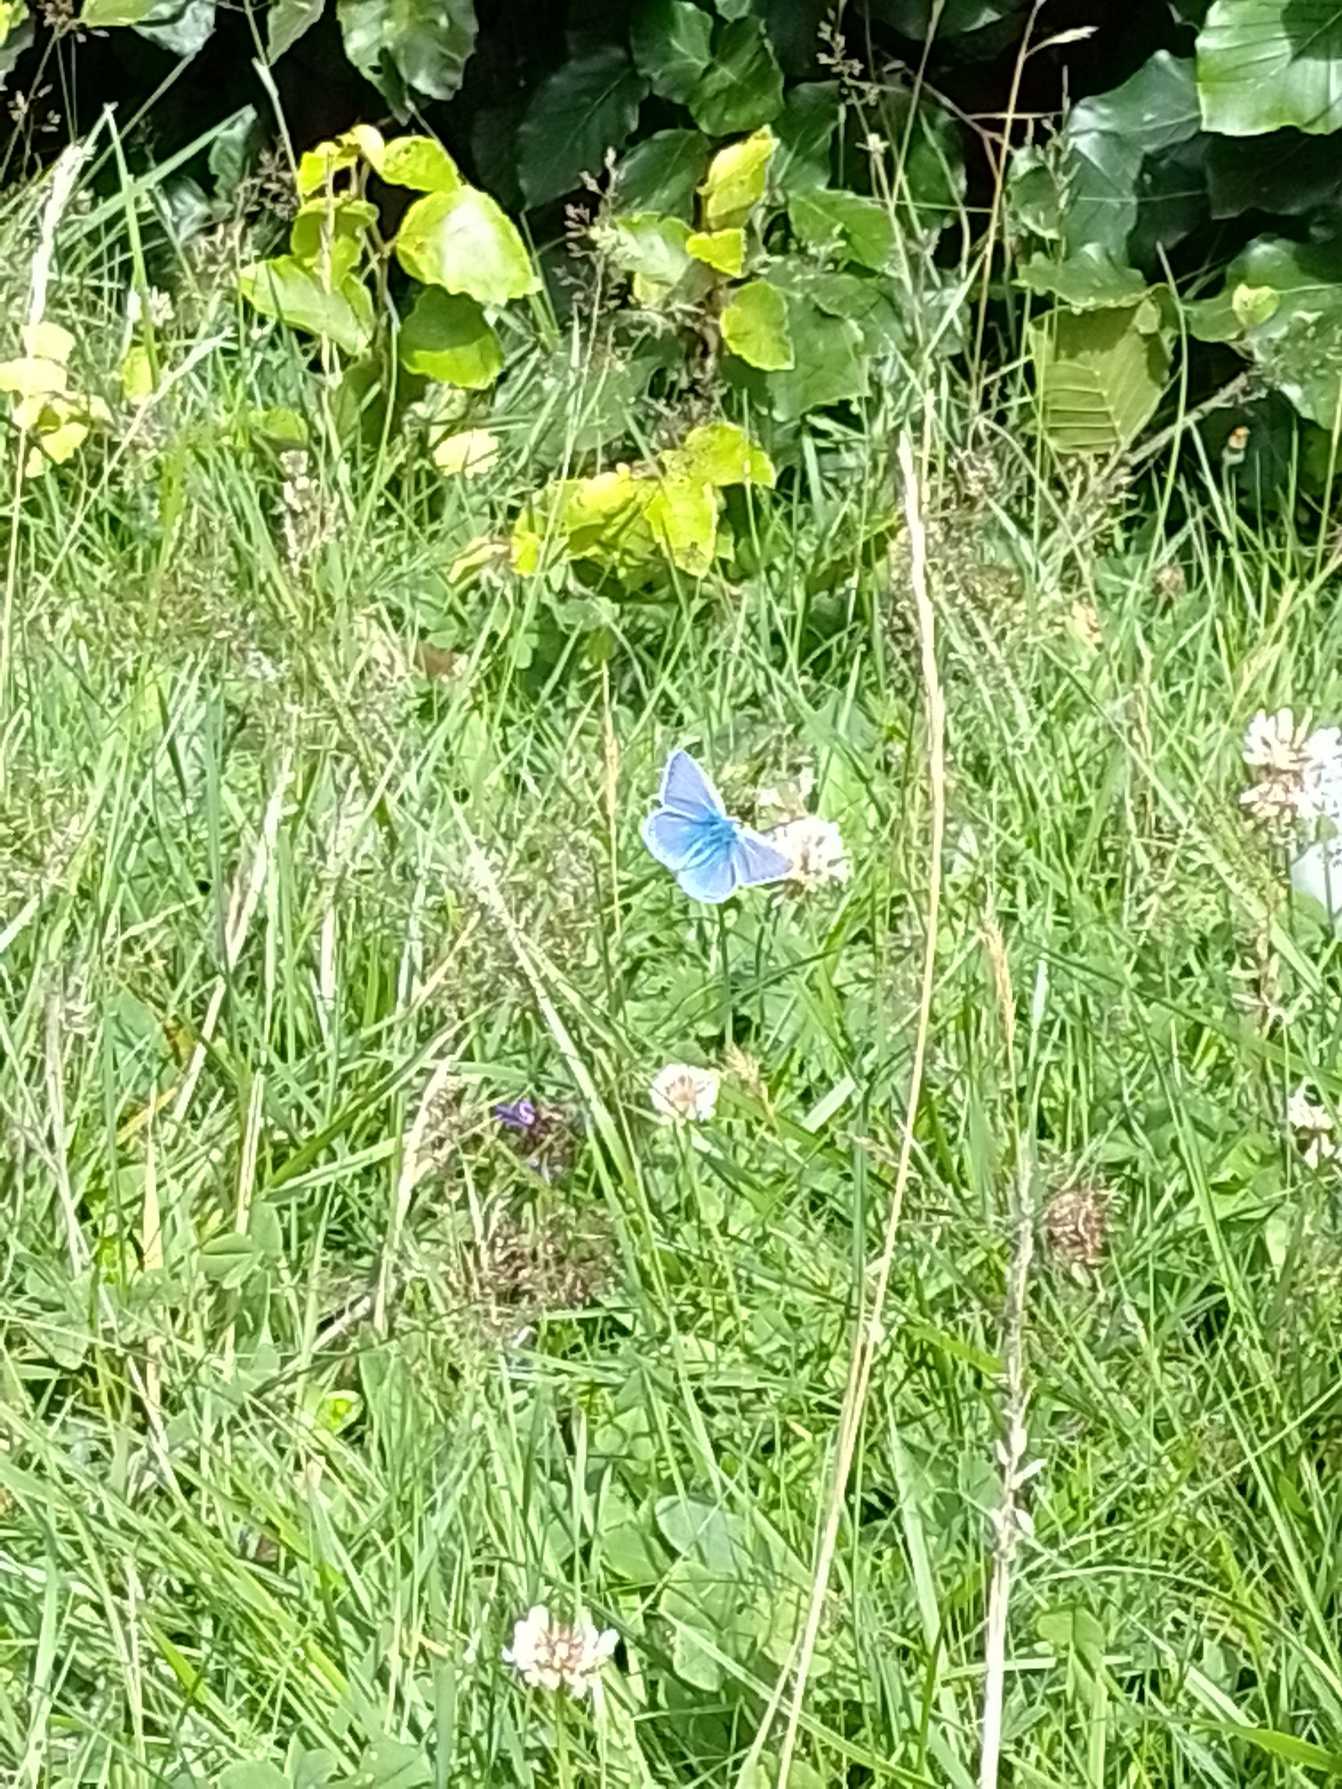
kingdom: Animalia
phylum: Arthropoda
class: Insecta
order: Lepidoptera
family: Lycaenidae
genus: Polyommatus
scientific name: Polyommatus icarus
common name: Almindelig blåfugl
